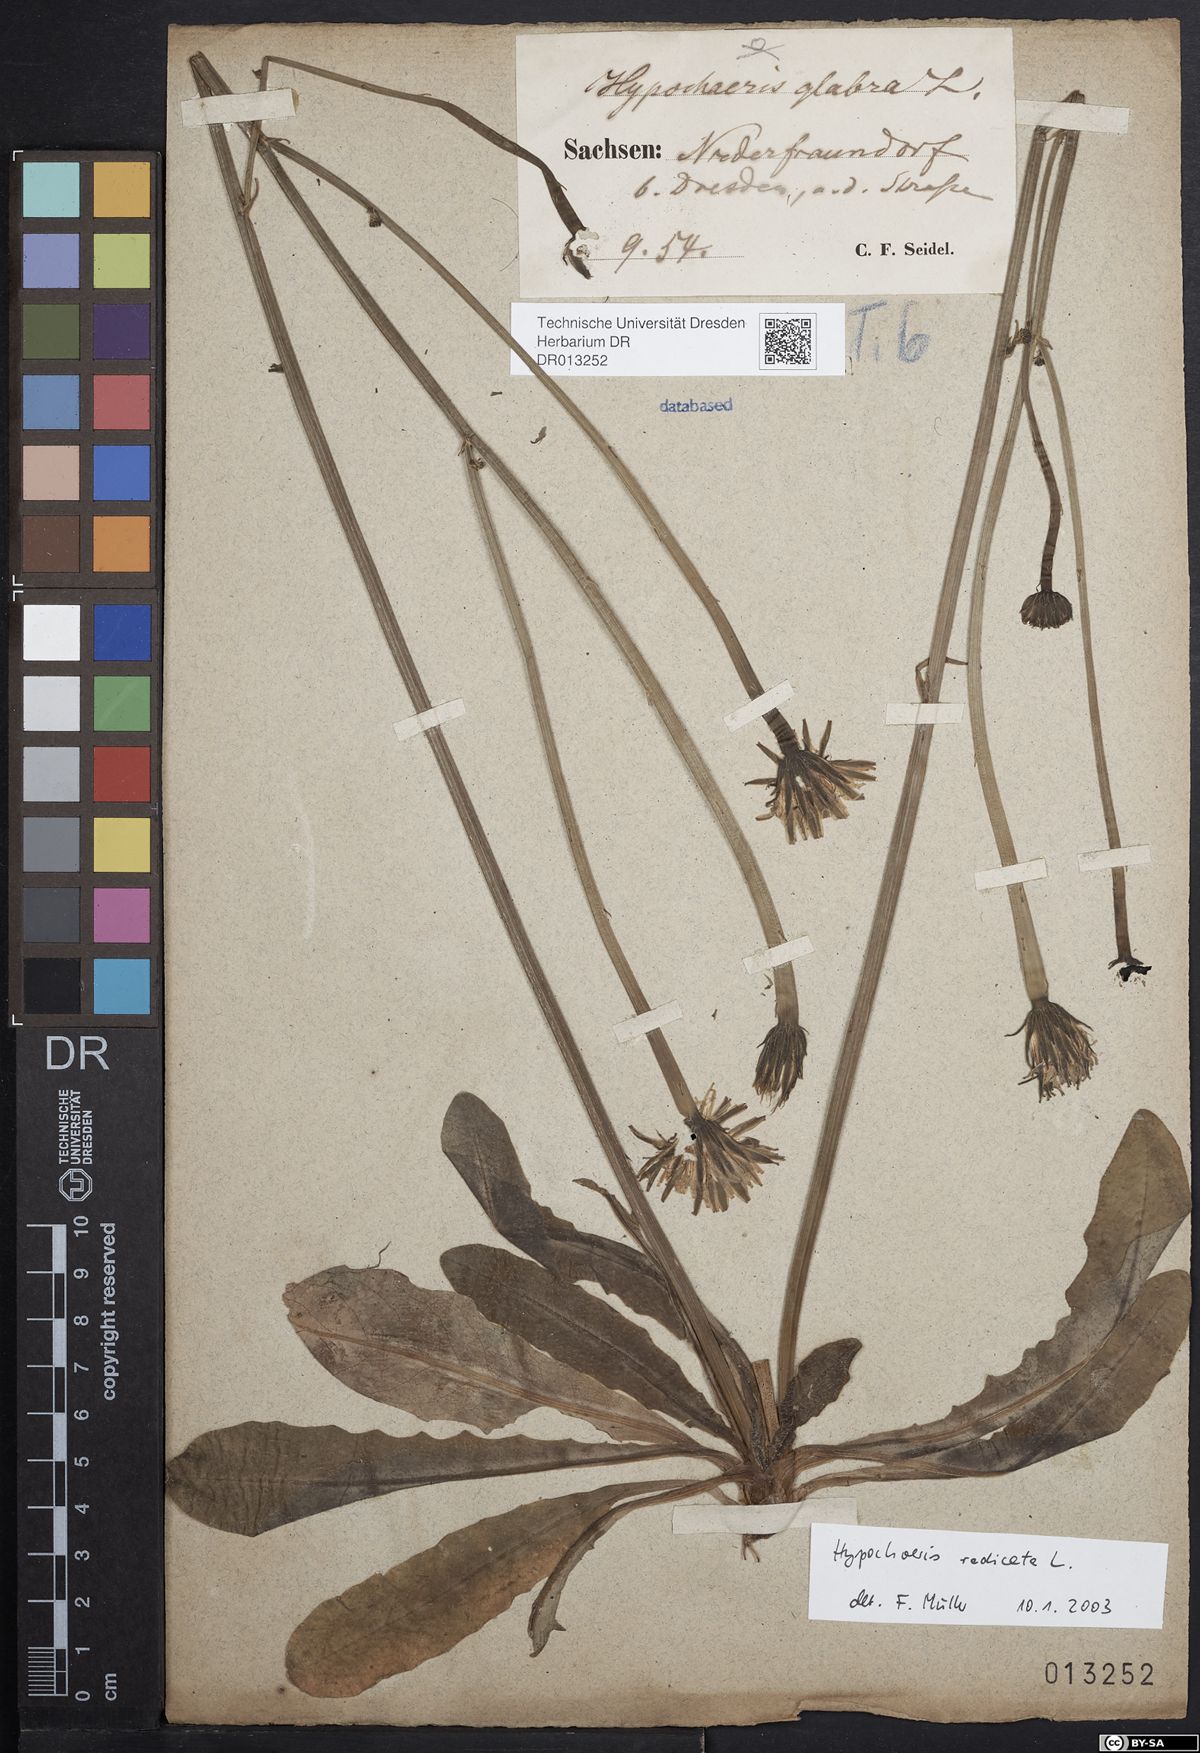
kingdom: Plantae
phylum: Tracheophyta
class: Magnoliopsida
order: Asterales
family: Asteraceae
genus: Hypochaeris
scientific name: Hypochaeris radicata
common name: Flatweed
